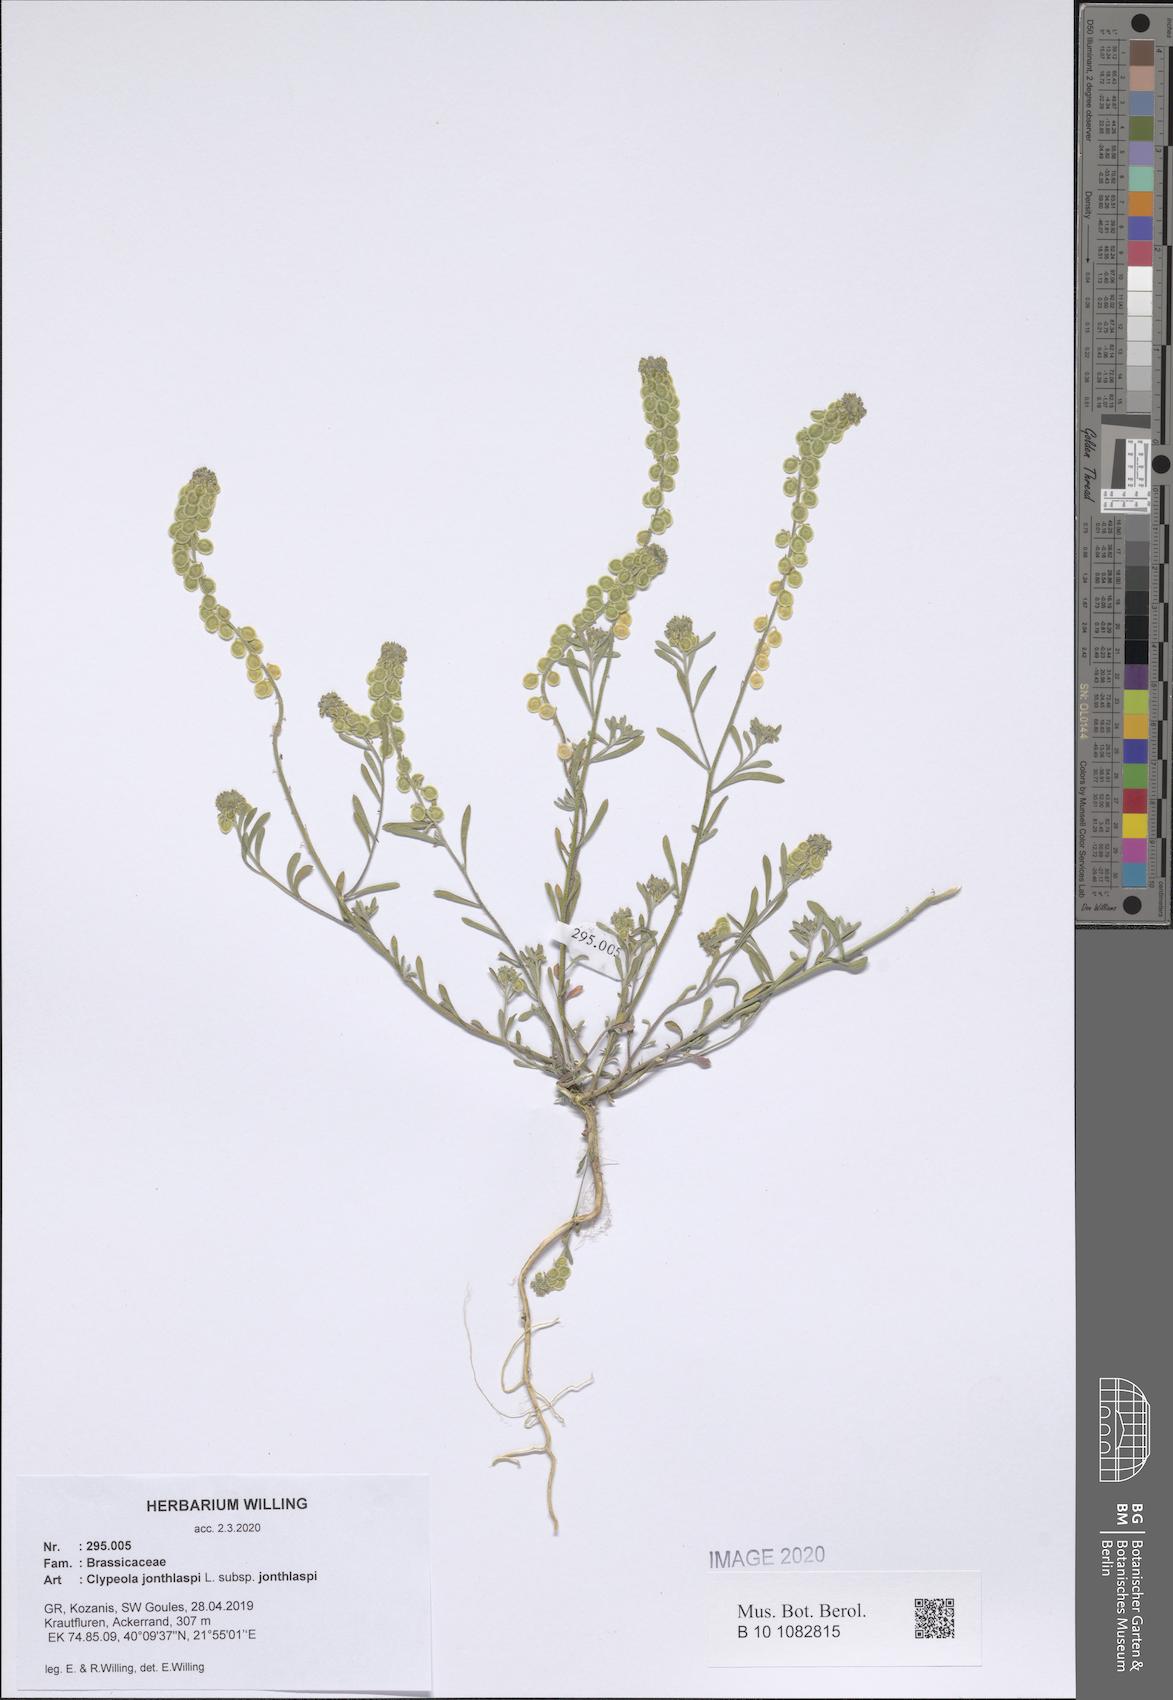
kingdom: Plantae
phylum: Tracheophyta
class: Magnoliopsida
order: Brassicales
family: Brassicaceae
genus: Clypeola
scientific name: Clypeola jonthlaspi
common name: Disk cress
